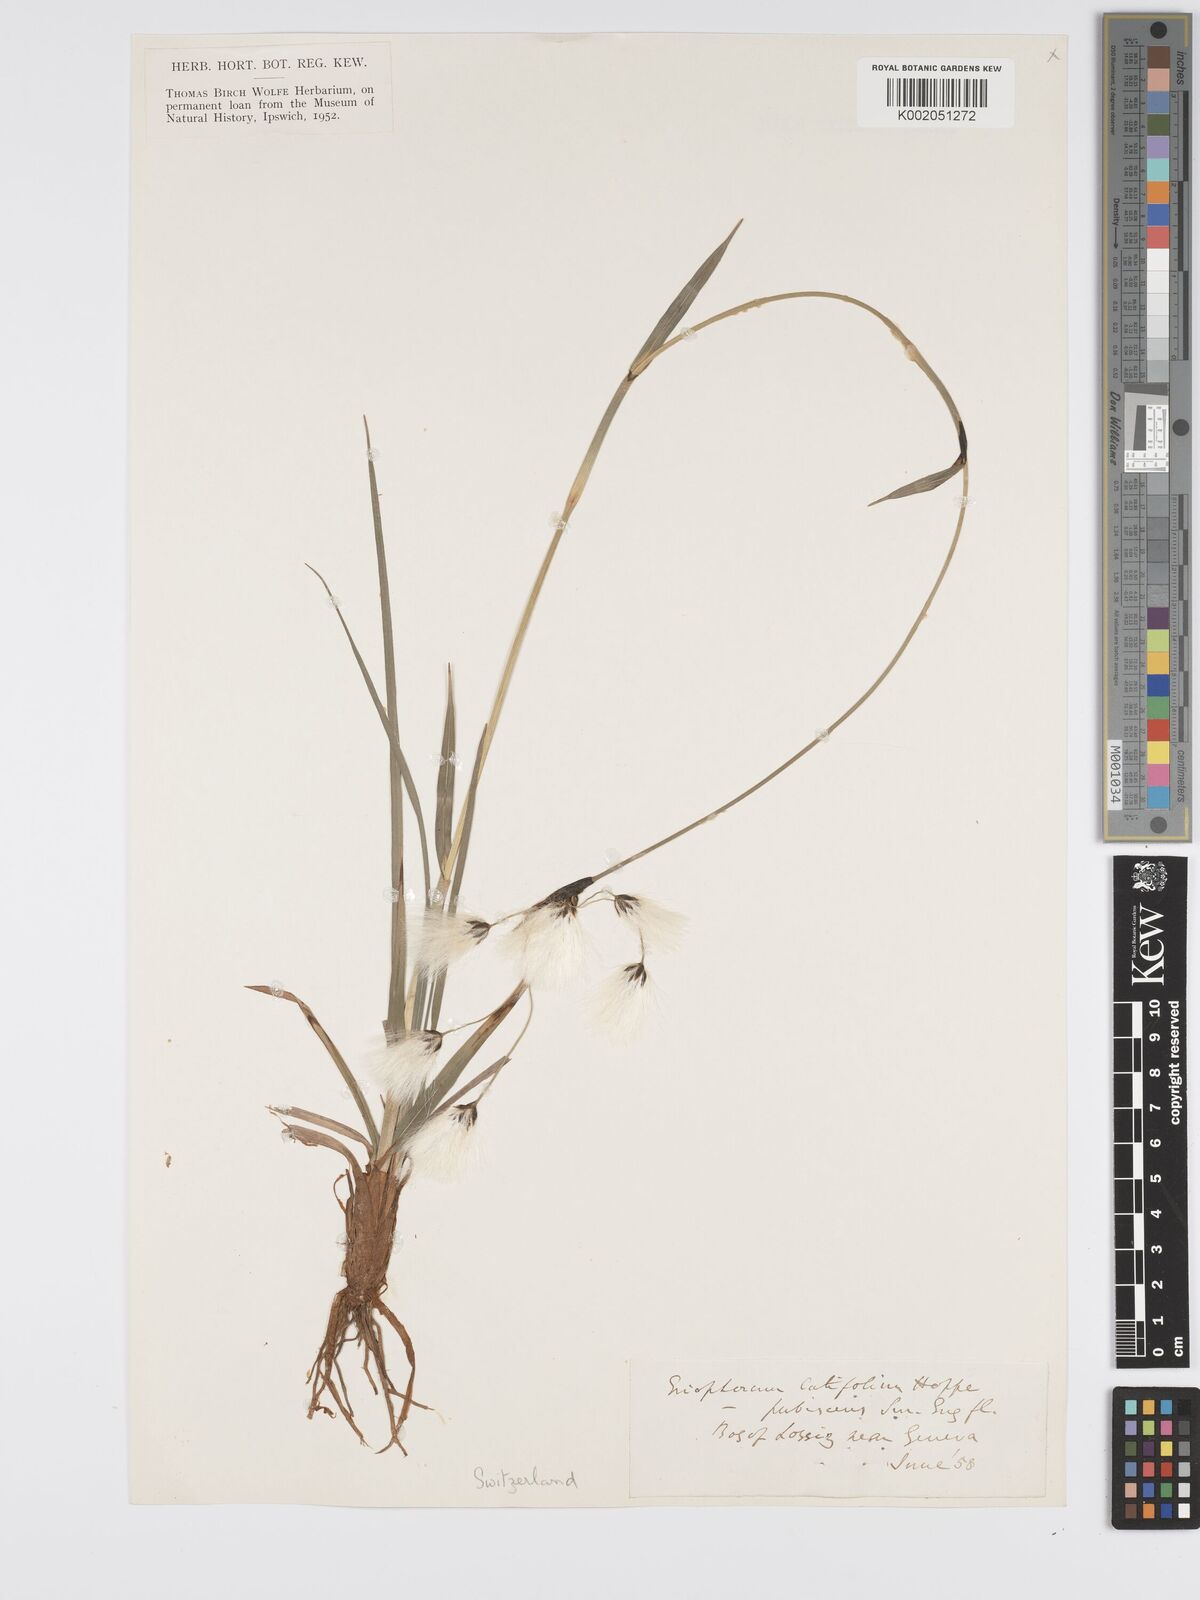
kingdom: Plantae
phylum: Tracheophyta
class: Liliopsida
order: Poales
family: Cyperaceae
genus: Eriophorum
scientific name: Eriophorum latifolium
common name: Broad-leaved cottongrass
